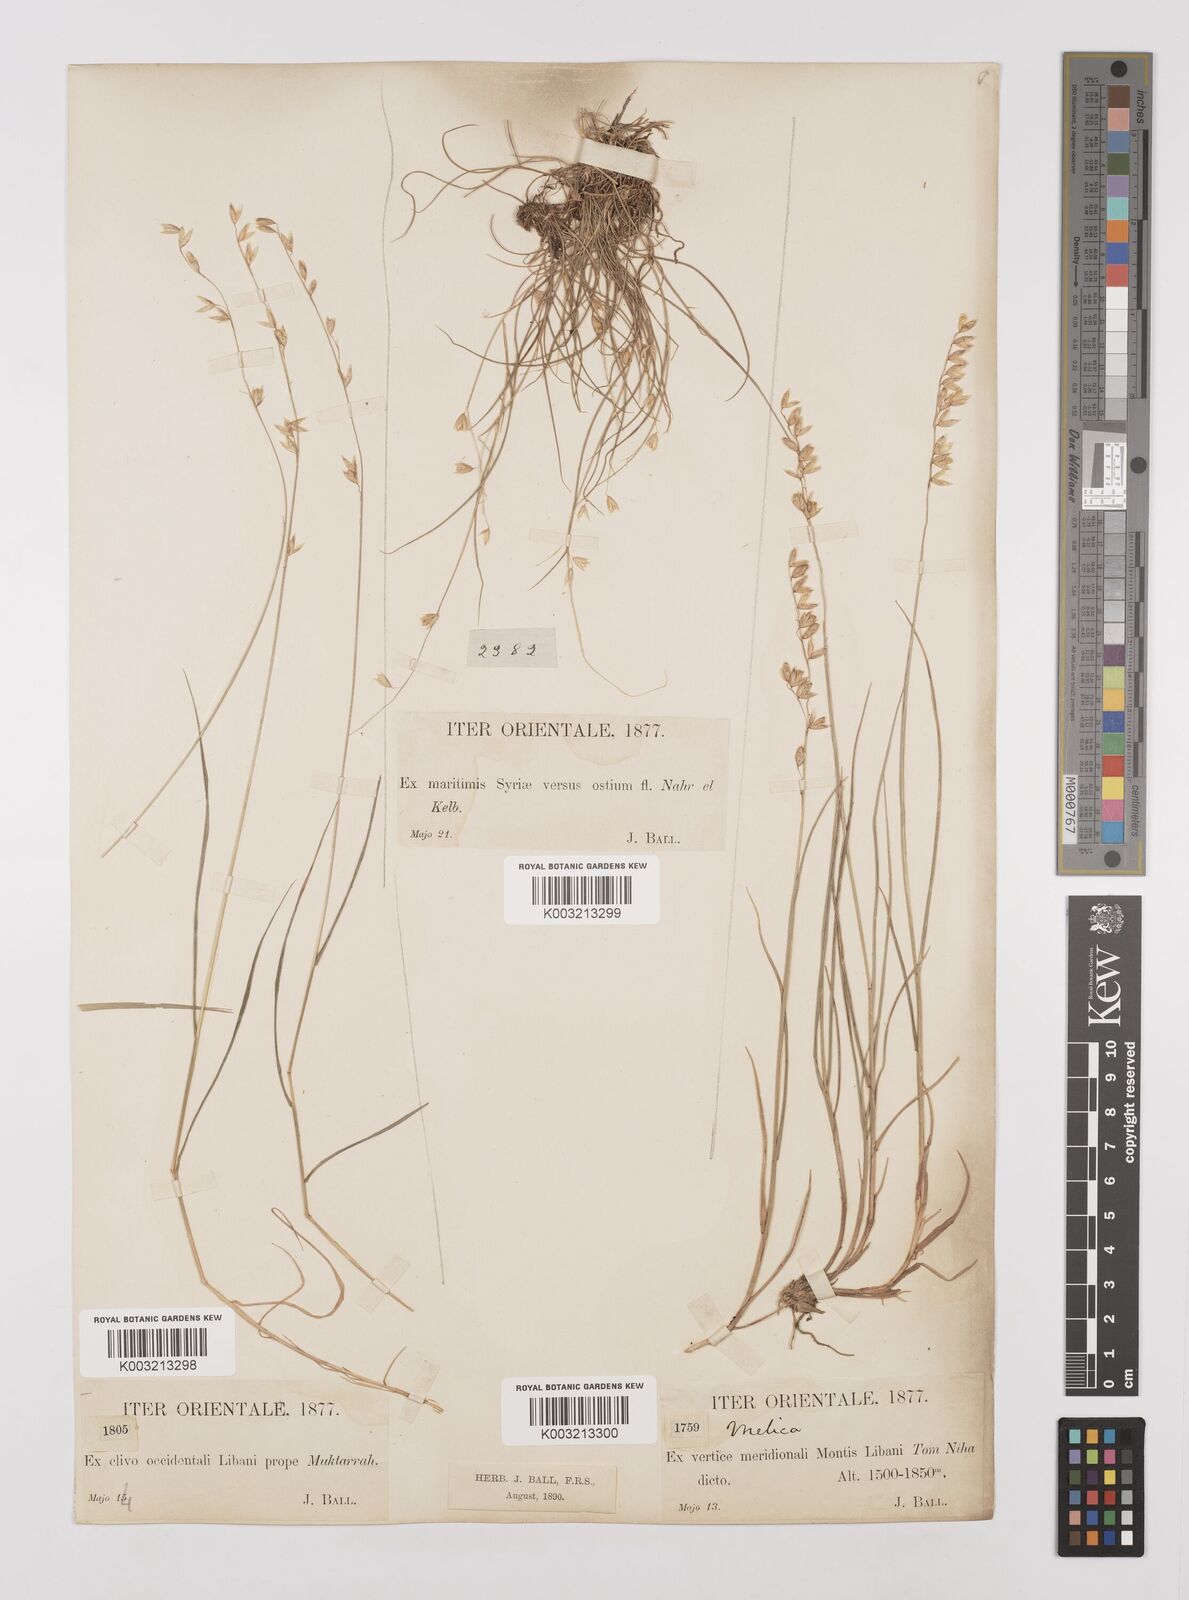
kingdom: Plantae
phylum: Tracheophyta
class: Liliopsida
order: Poales
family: Poaceae
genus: Melica
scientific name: Melica minuta
